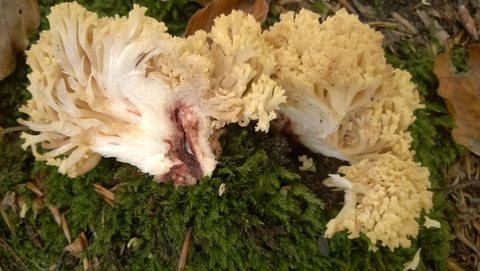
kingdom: Fungi
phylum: Basidiomycota
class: Agaricomycetes
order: Gomphales
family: Gomphaceae
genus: Ramaria
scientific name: Ramaria sanguinea
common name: blodplettet koralsvamp
